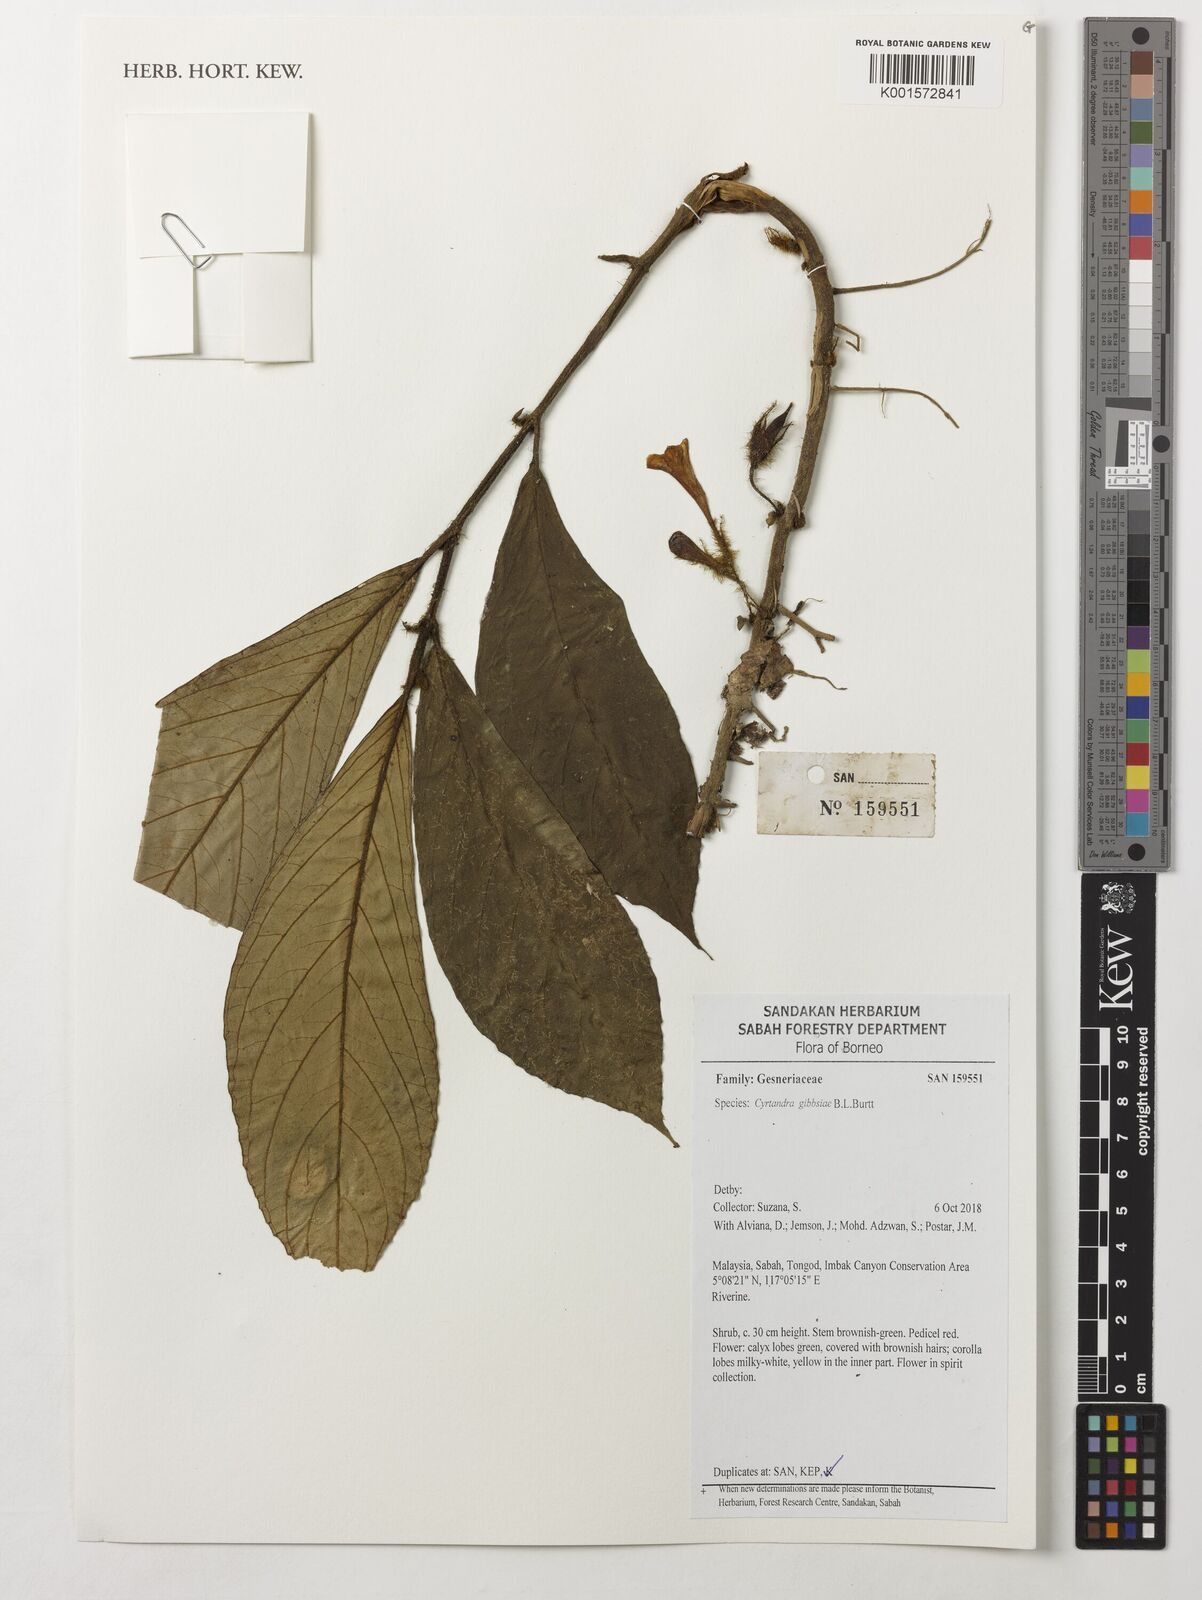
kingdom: Plantae
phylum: Tracheophyta
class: Magnoliopsida
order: Lamiales
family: Gesneriaceae
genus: Cyrtandra
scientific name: Cyrtandra gibbsiae
